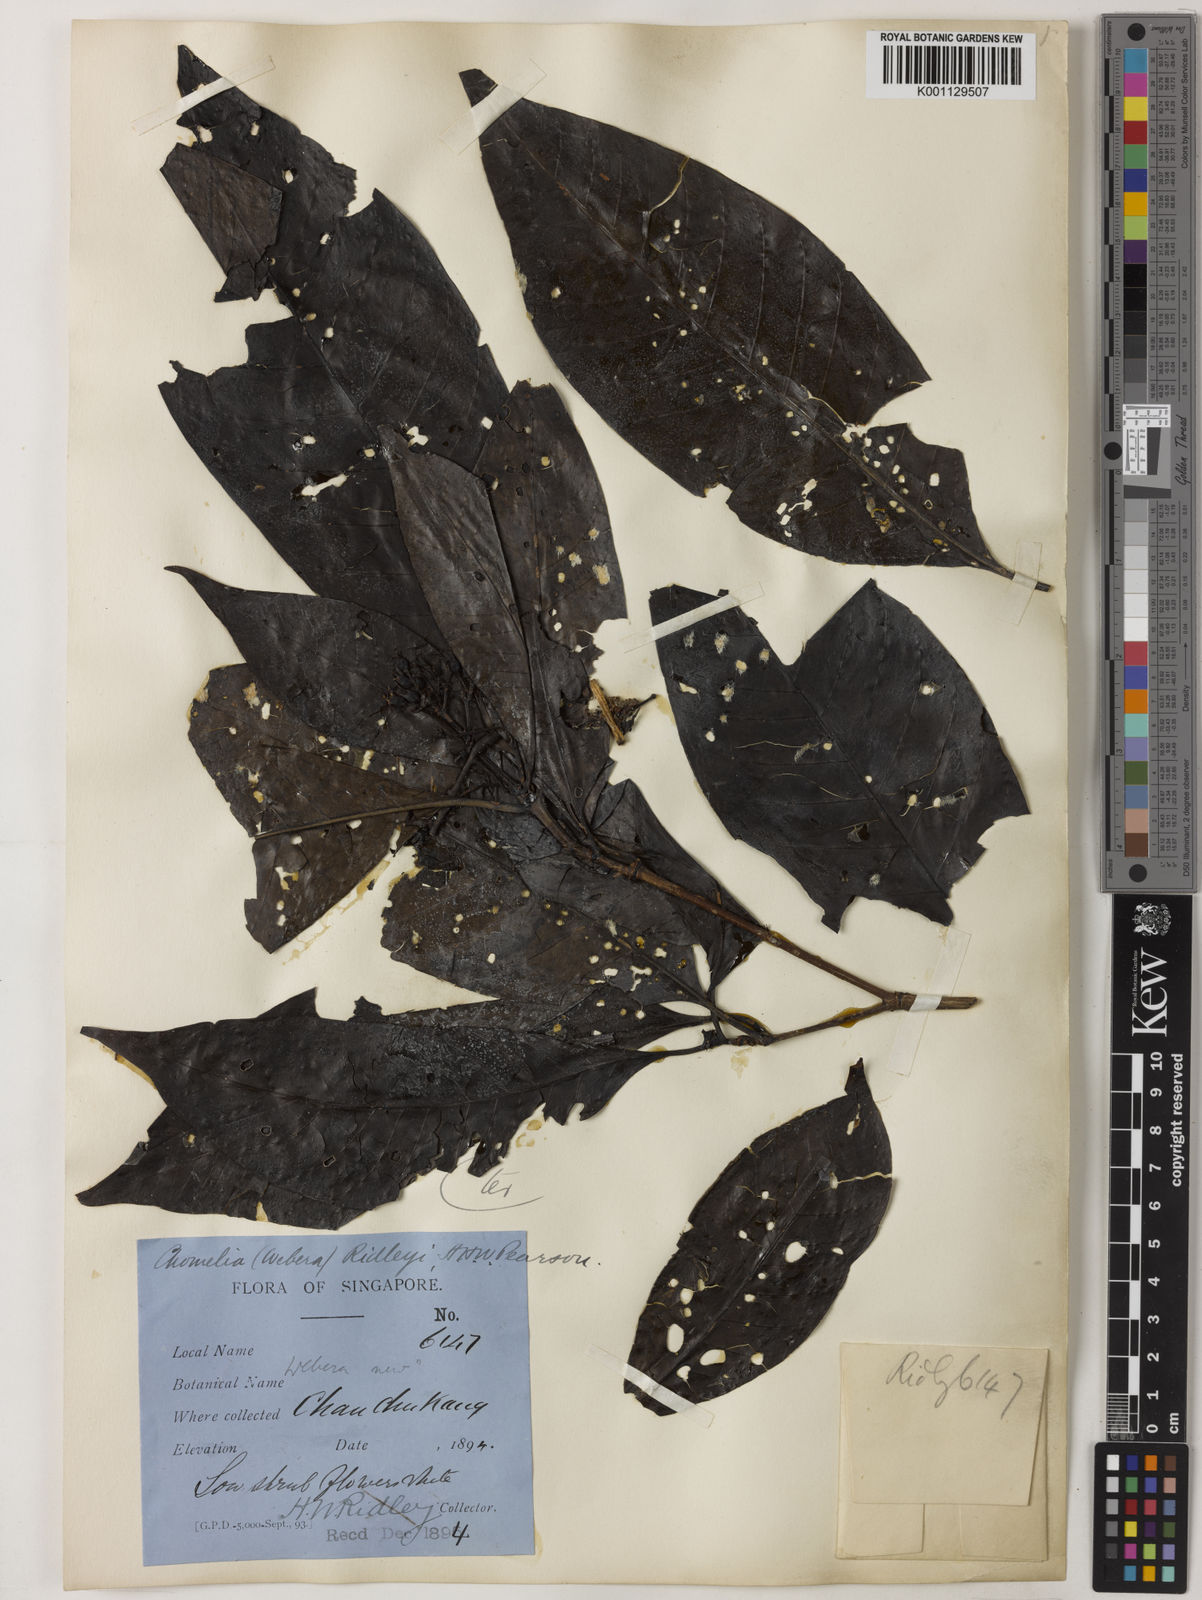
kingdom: Plantae
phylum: Tracheophyta
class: Magnoliopsida
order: Gentianales
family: Rubiaceae
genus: Tarenna
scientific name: Tarenna ridleyi
